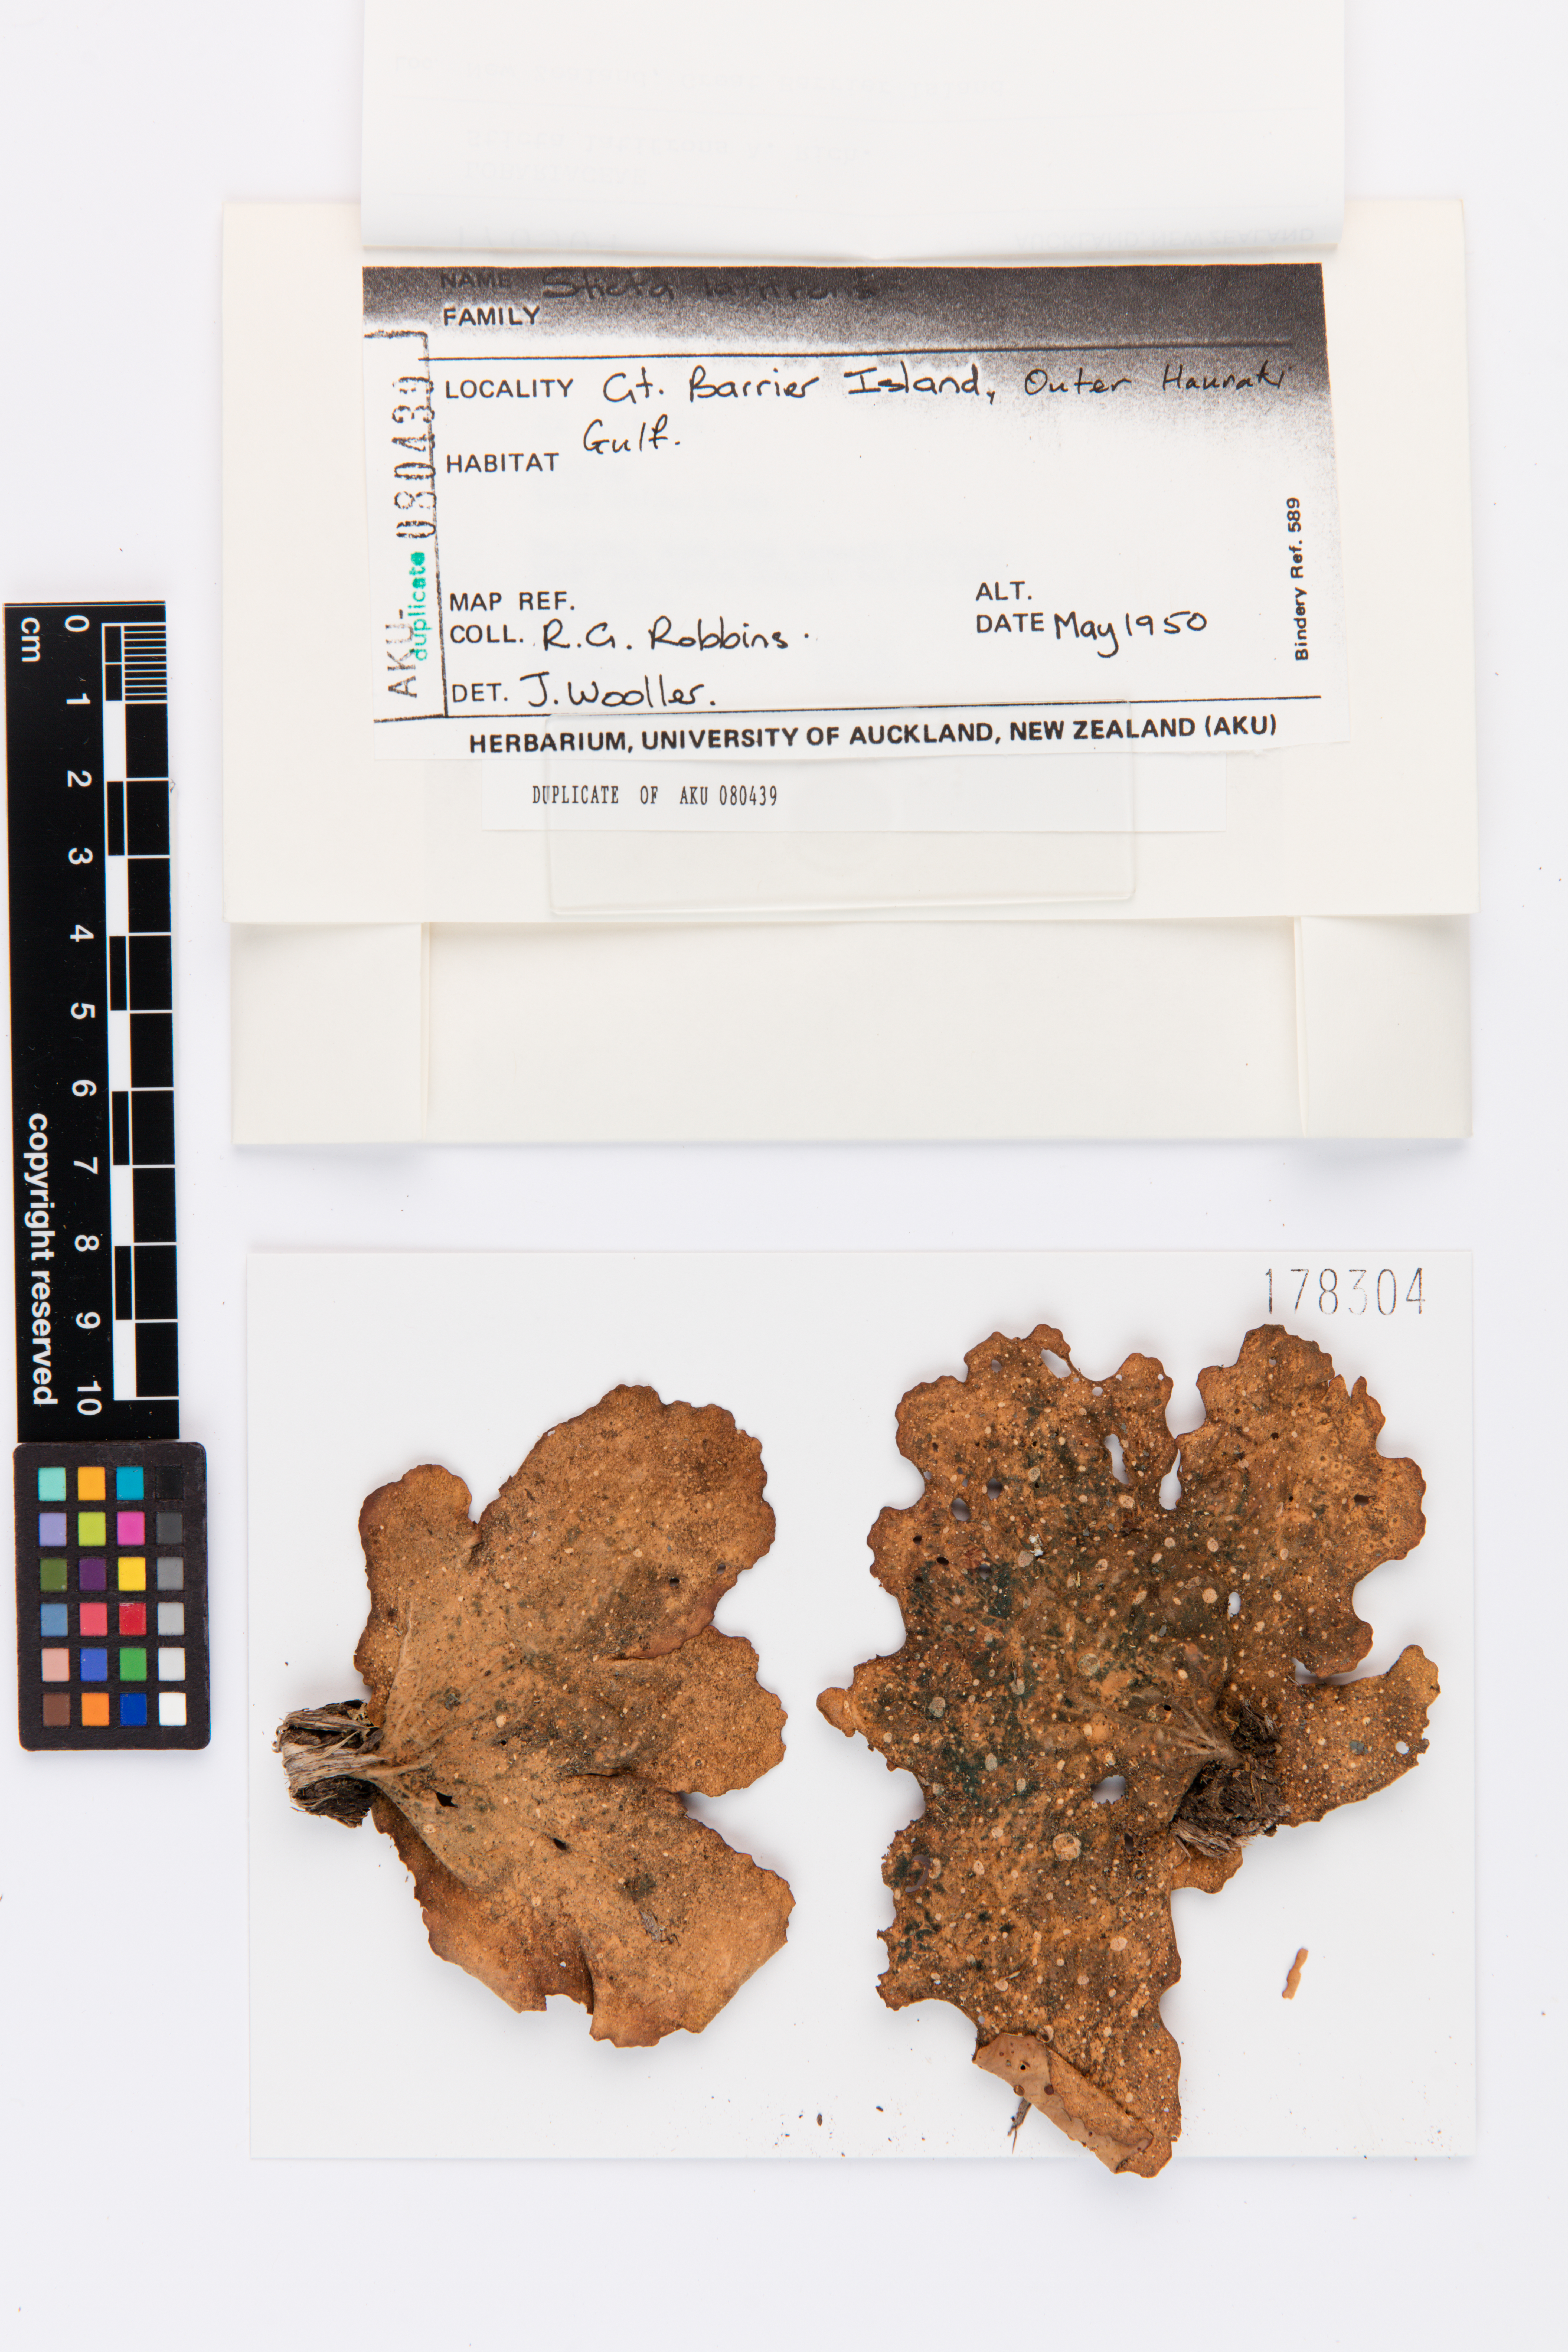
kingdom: Fungi
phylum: Ascomycota
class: Lecanoromycetes
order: Peltigerales
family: Lobariaceae
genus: Sticta
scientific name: Sticta latifrons
